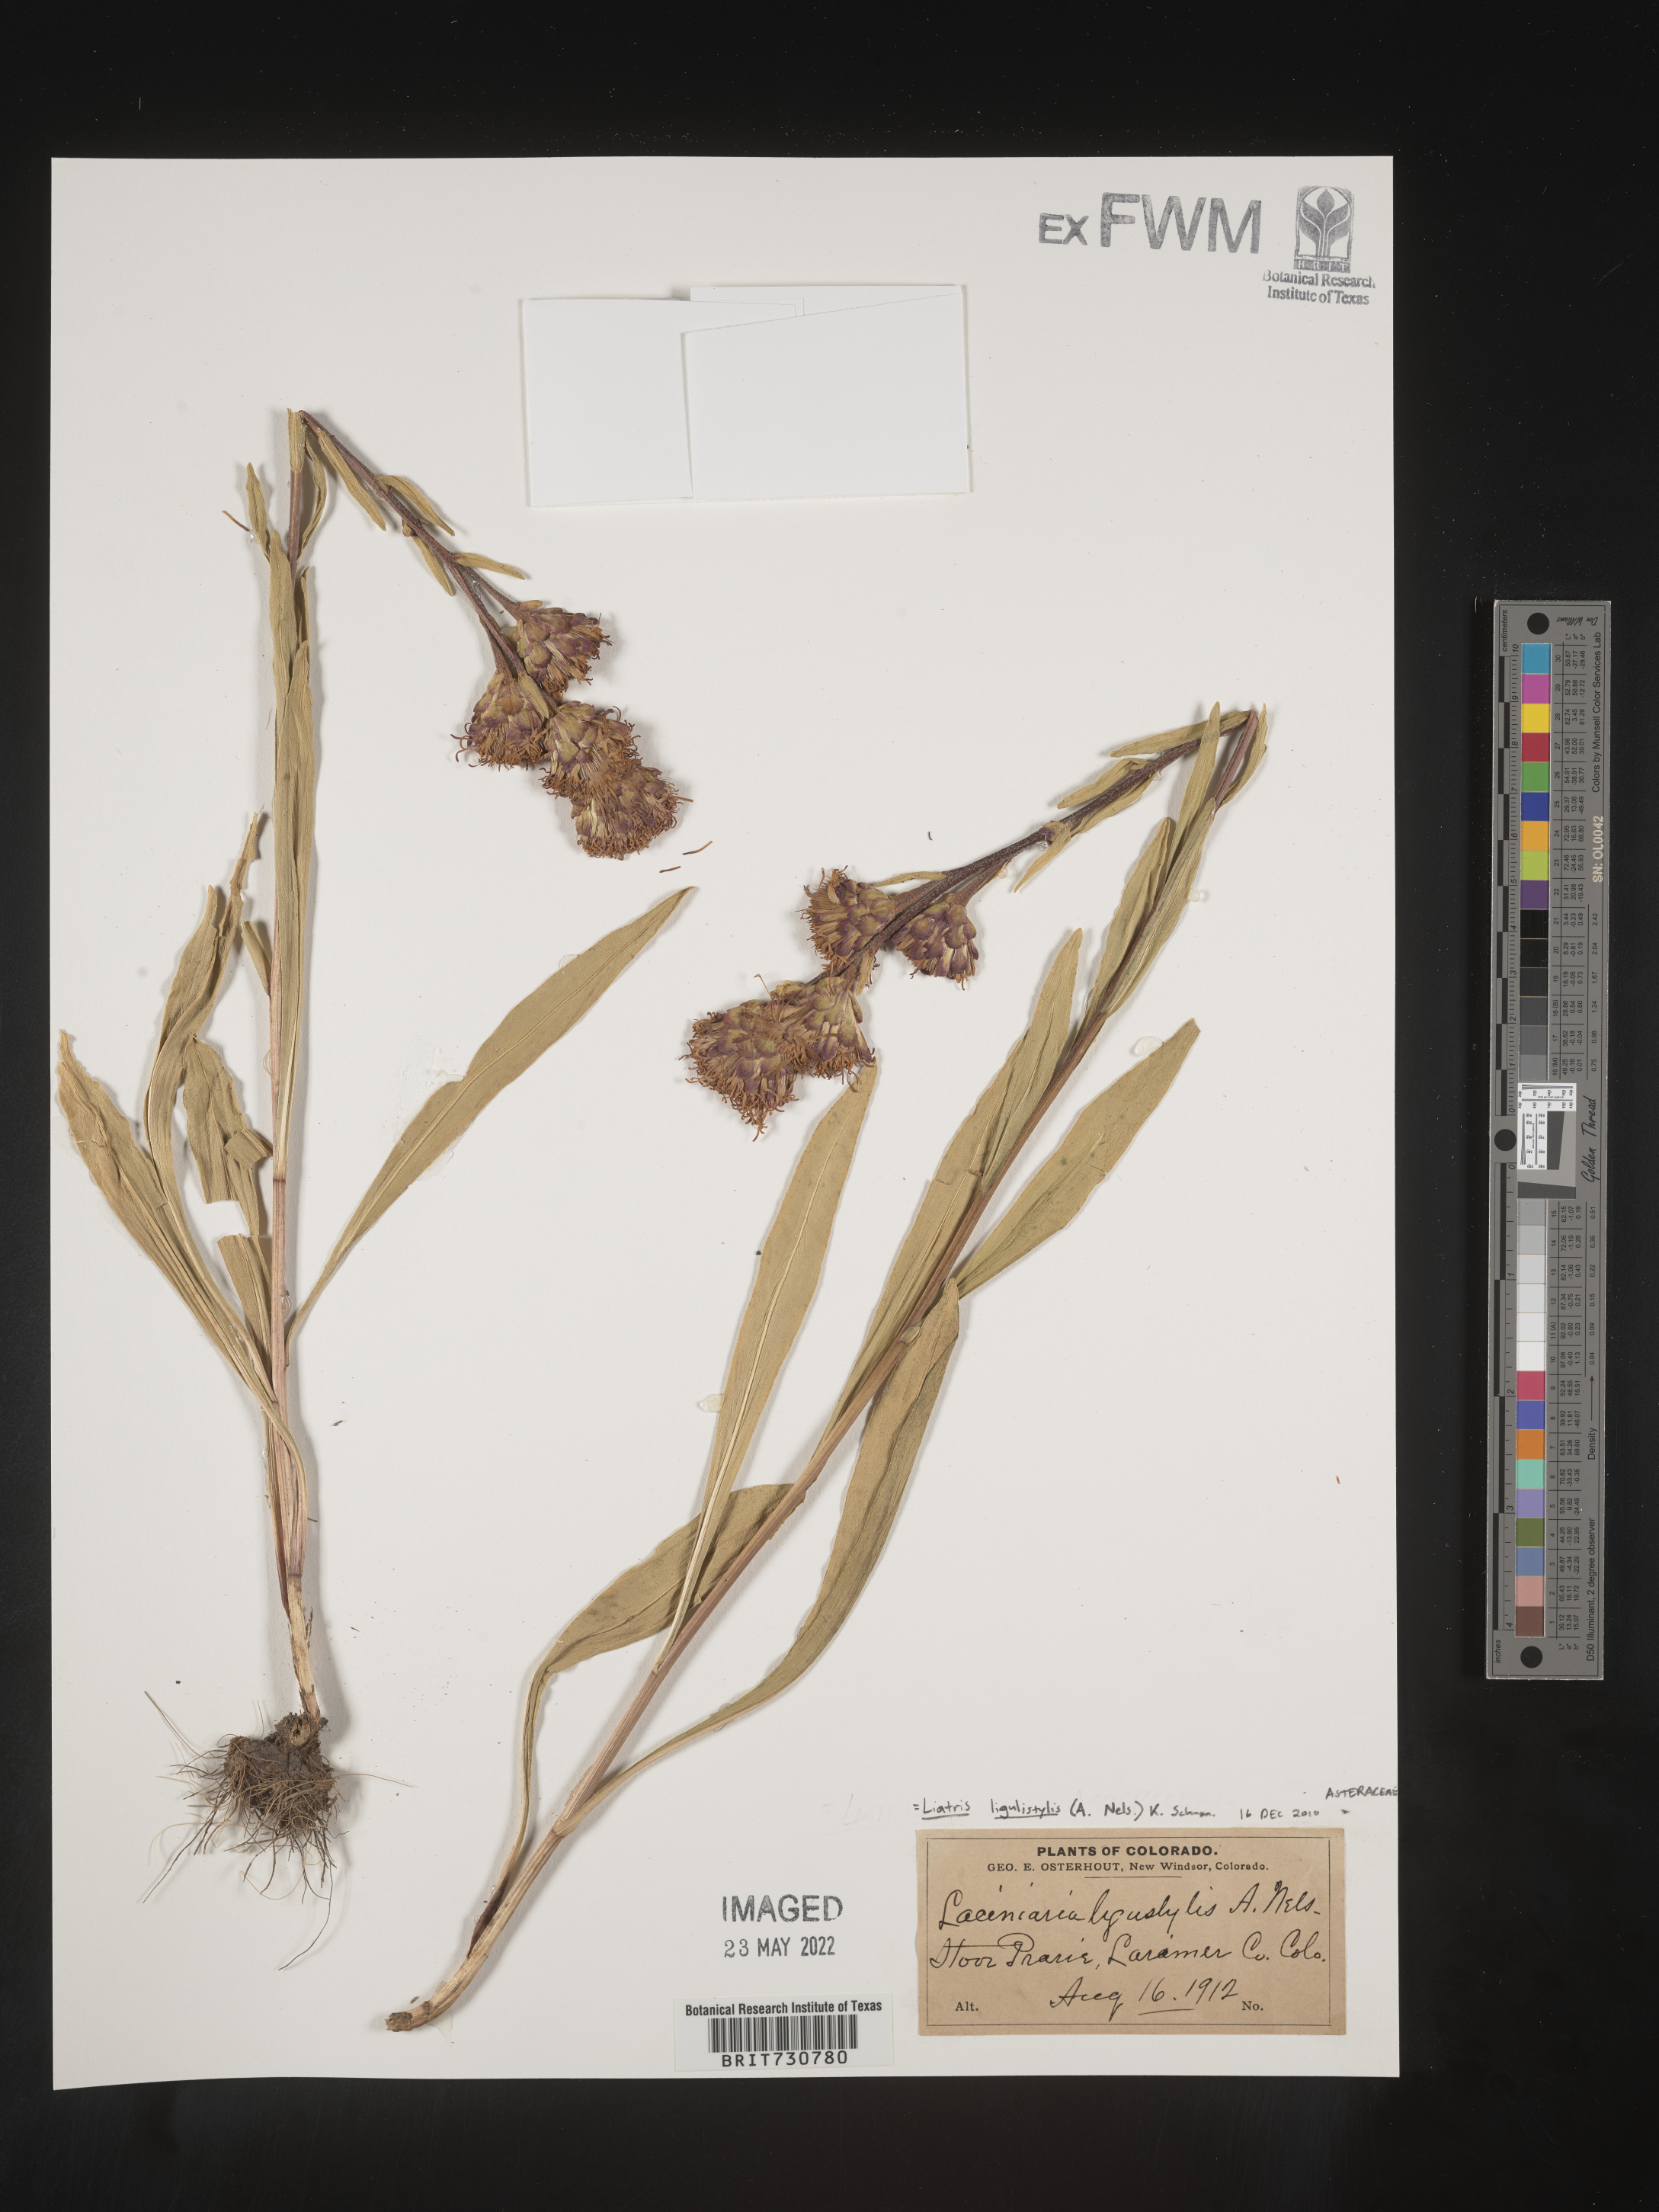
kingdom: Plantae
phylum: Tracheophyta
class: Magnoliopsida
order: Asterales
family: Asteraceae
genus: Liatris
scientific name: Liatris ligulistylis
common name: Northern plains gayfeather
